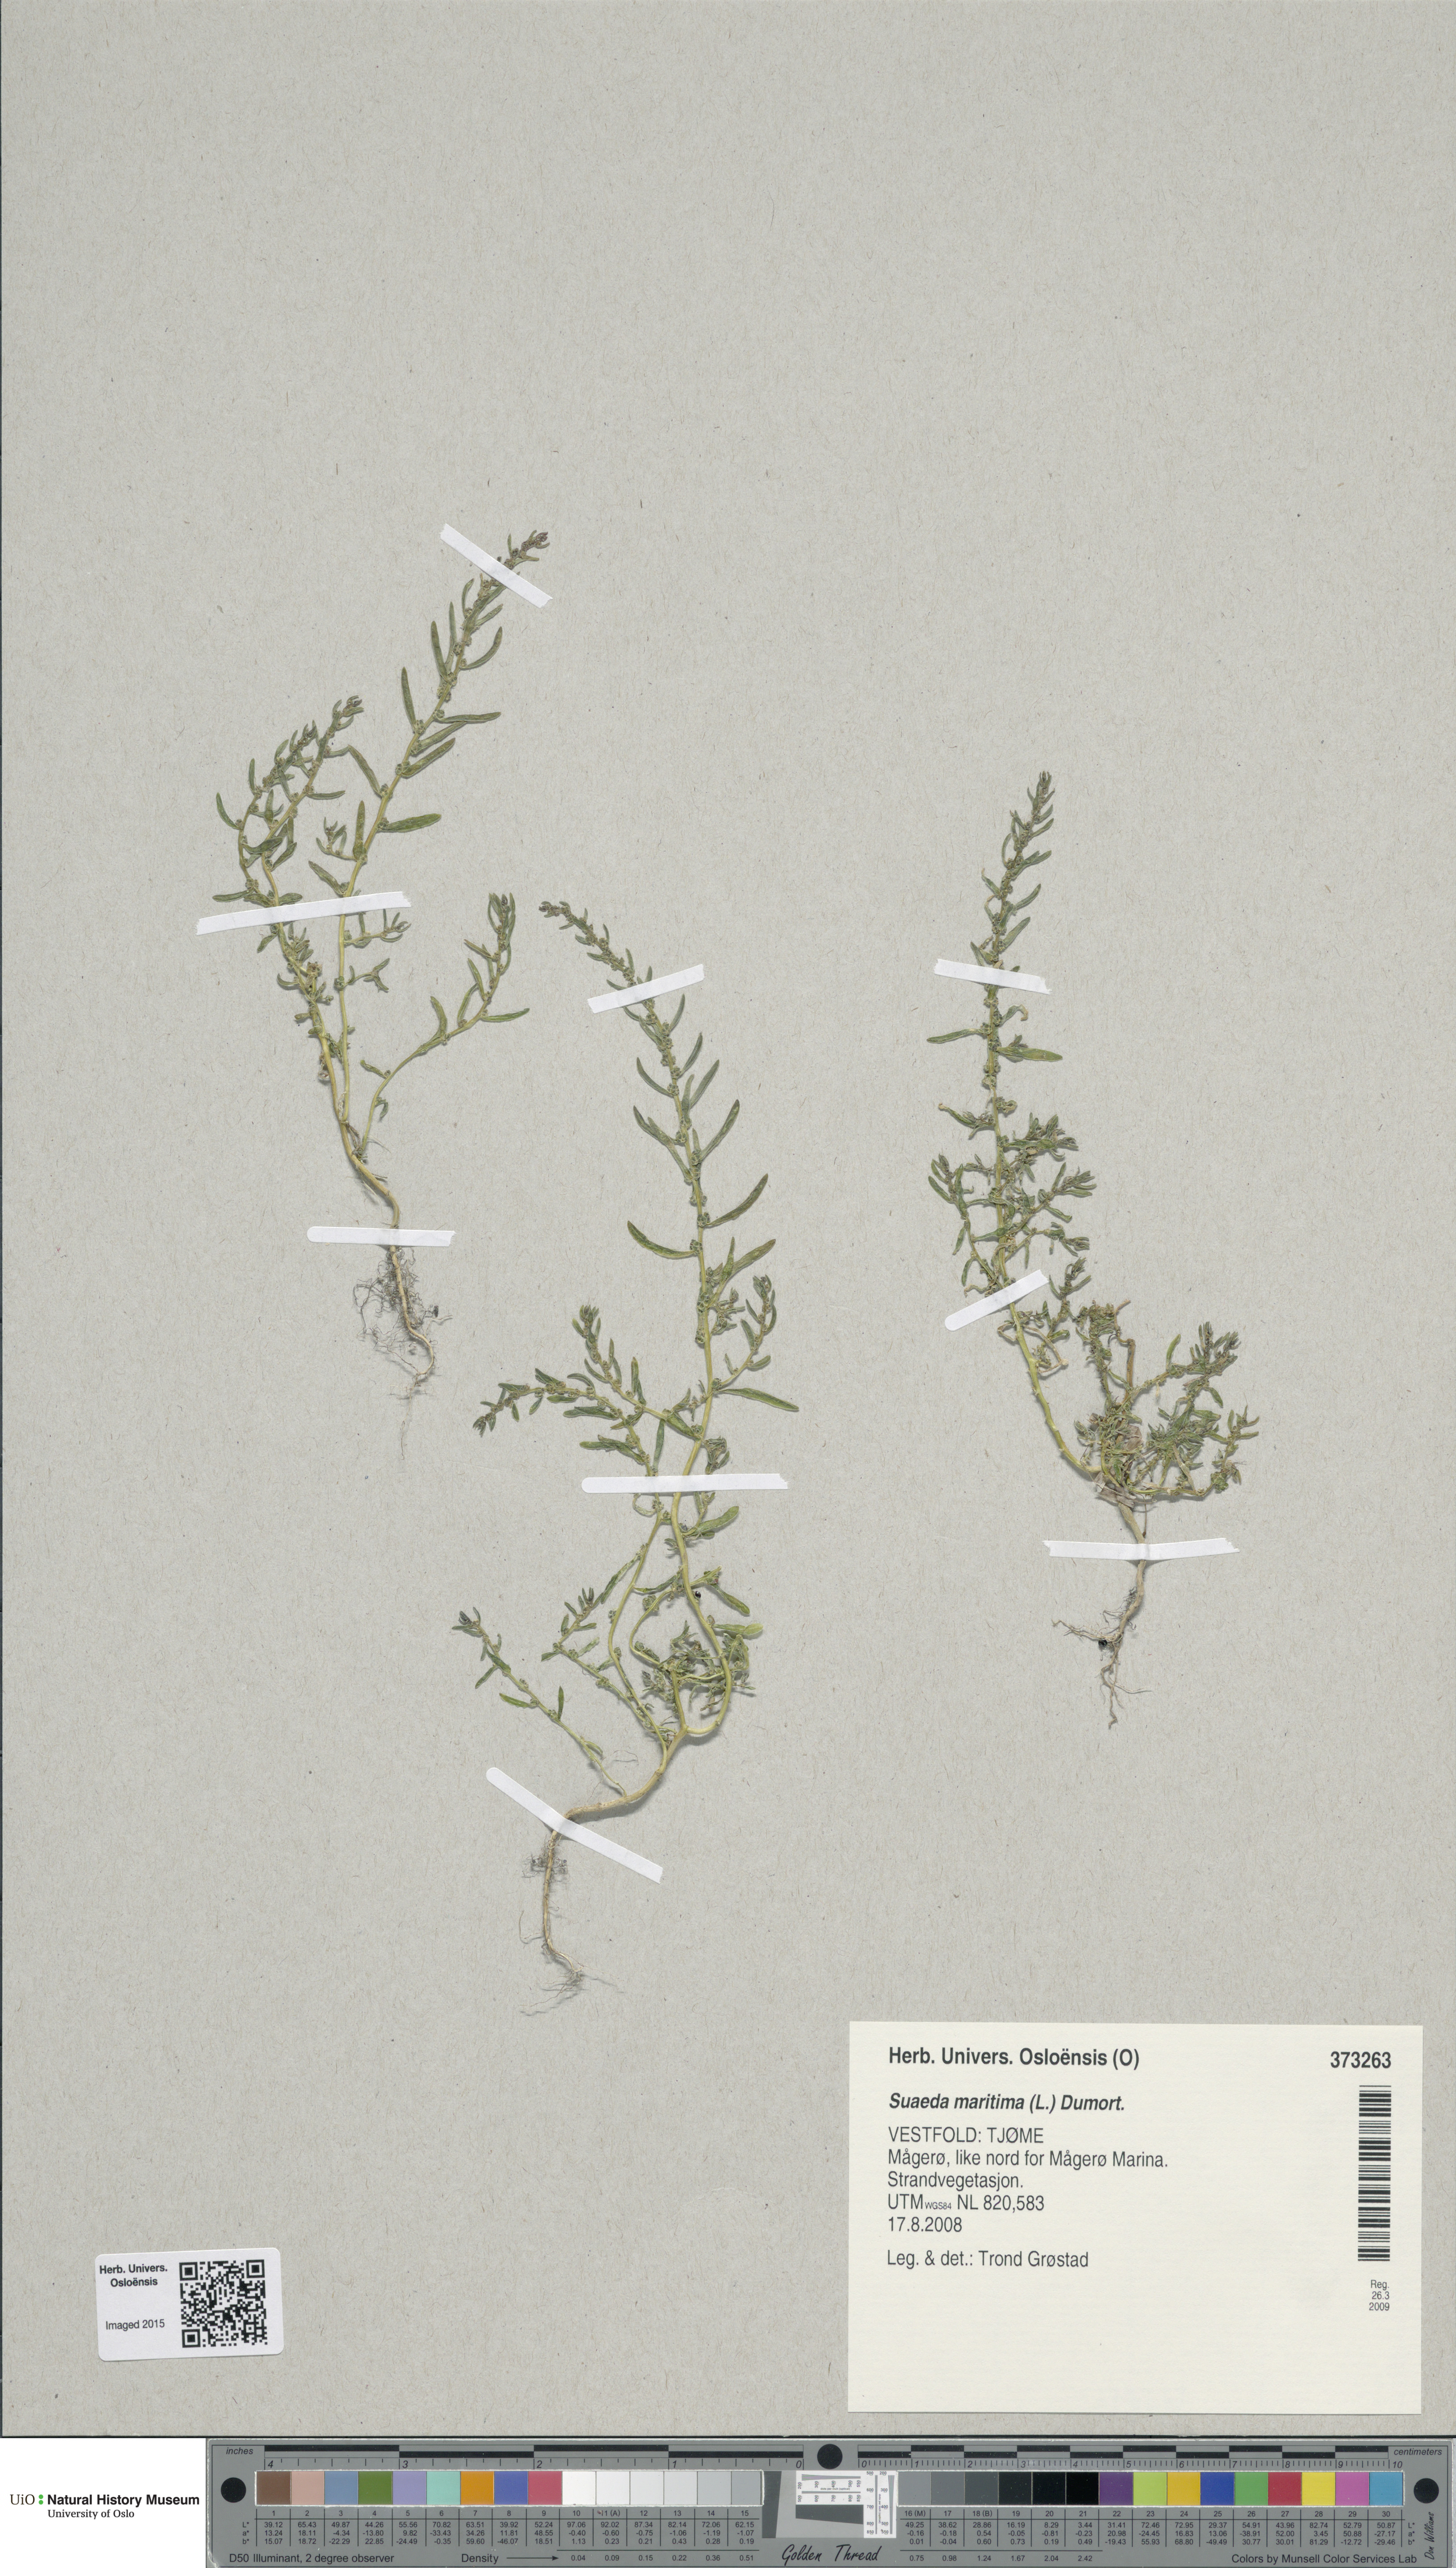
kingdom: Plantae
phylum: Tracheophyta
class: Magnoliopsida
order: Caryophyllales
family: Amaranthaceae
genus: Suaeda
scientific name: Suaeda maritima
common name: Annual sea-blite
